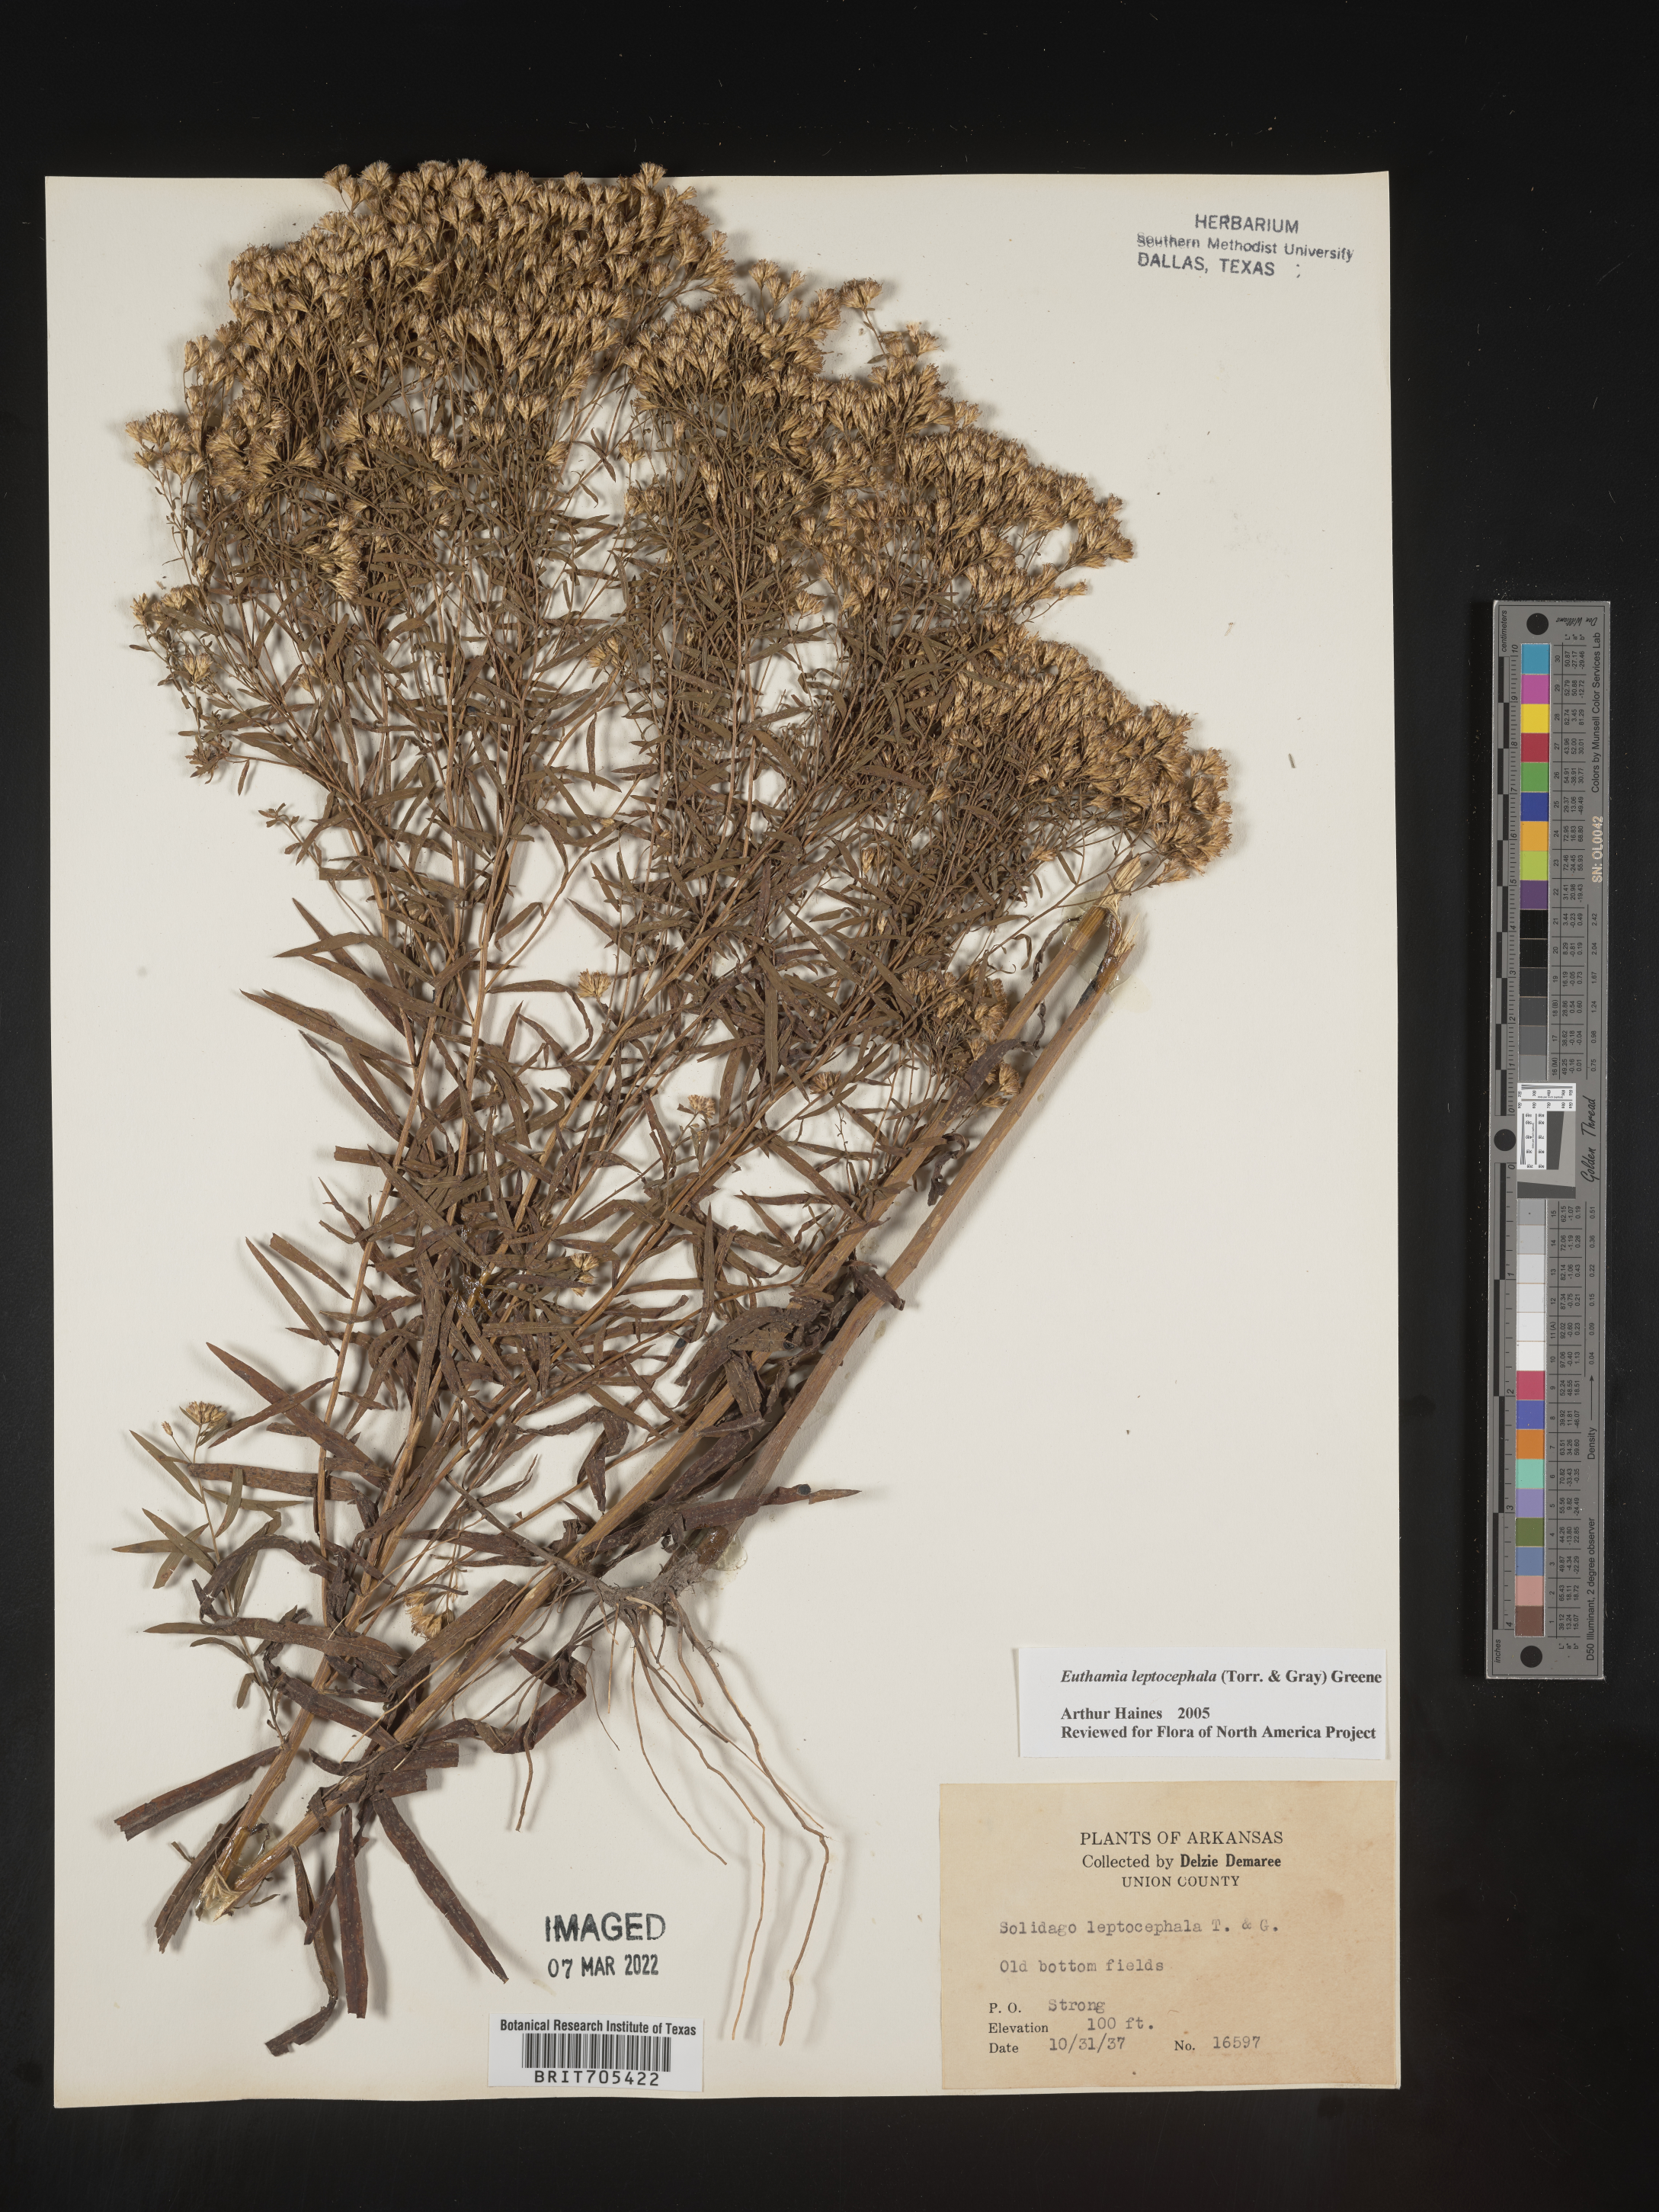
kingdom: Plantae
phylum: Tracheophyta
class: Magnoliopsida
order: Asterales
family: Asteraceae
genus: Euthamia
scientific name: Euthamia leptocephala
